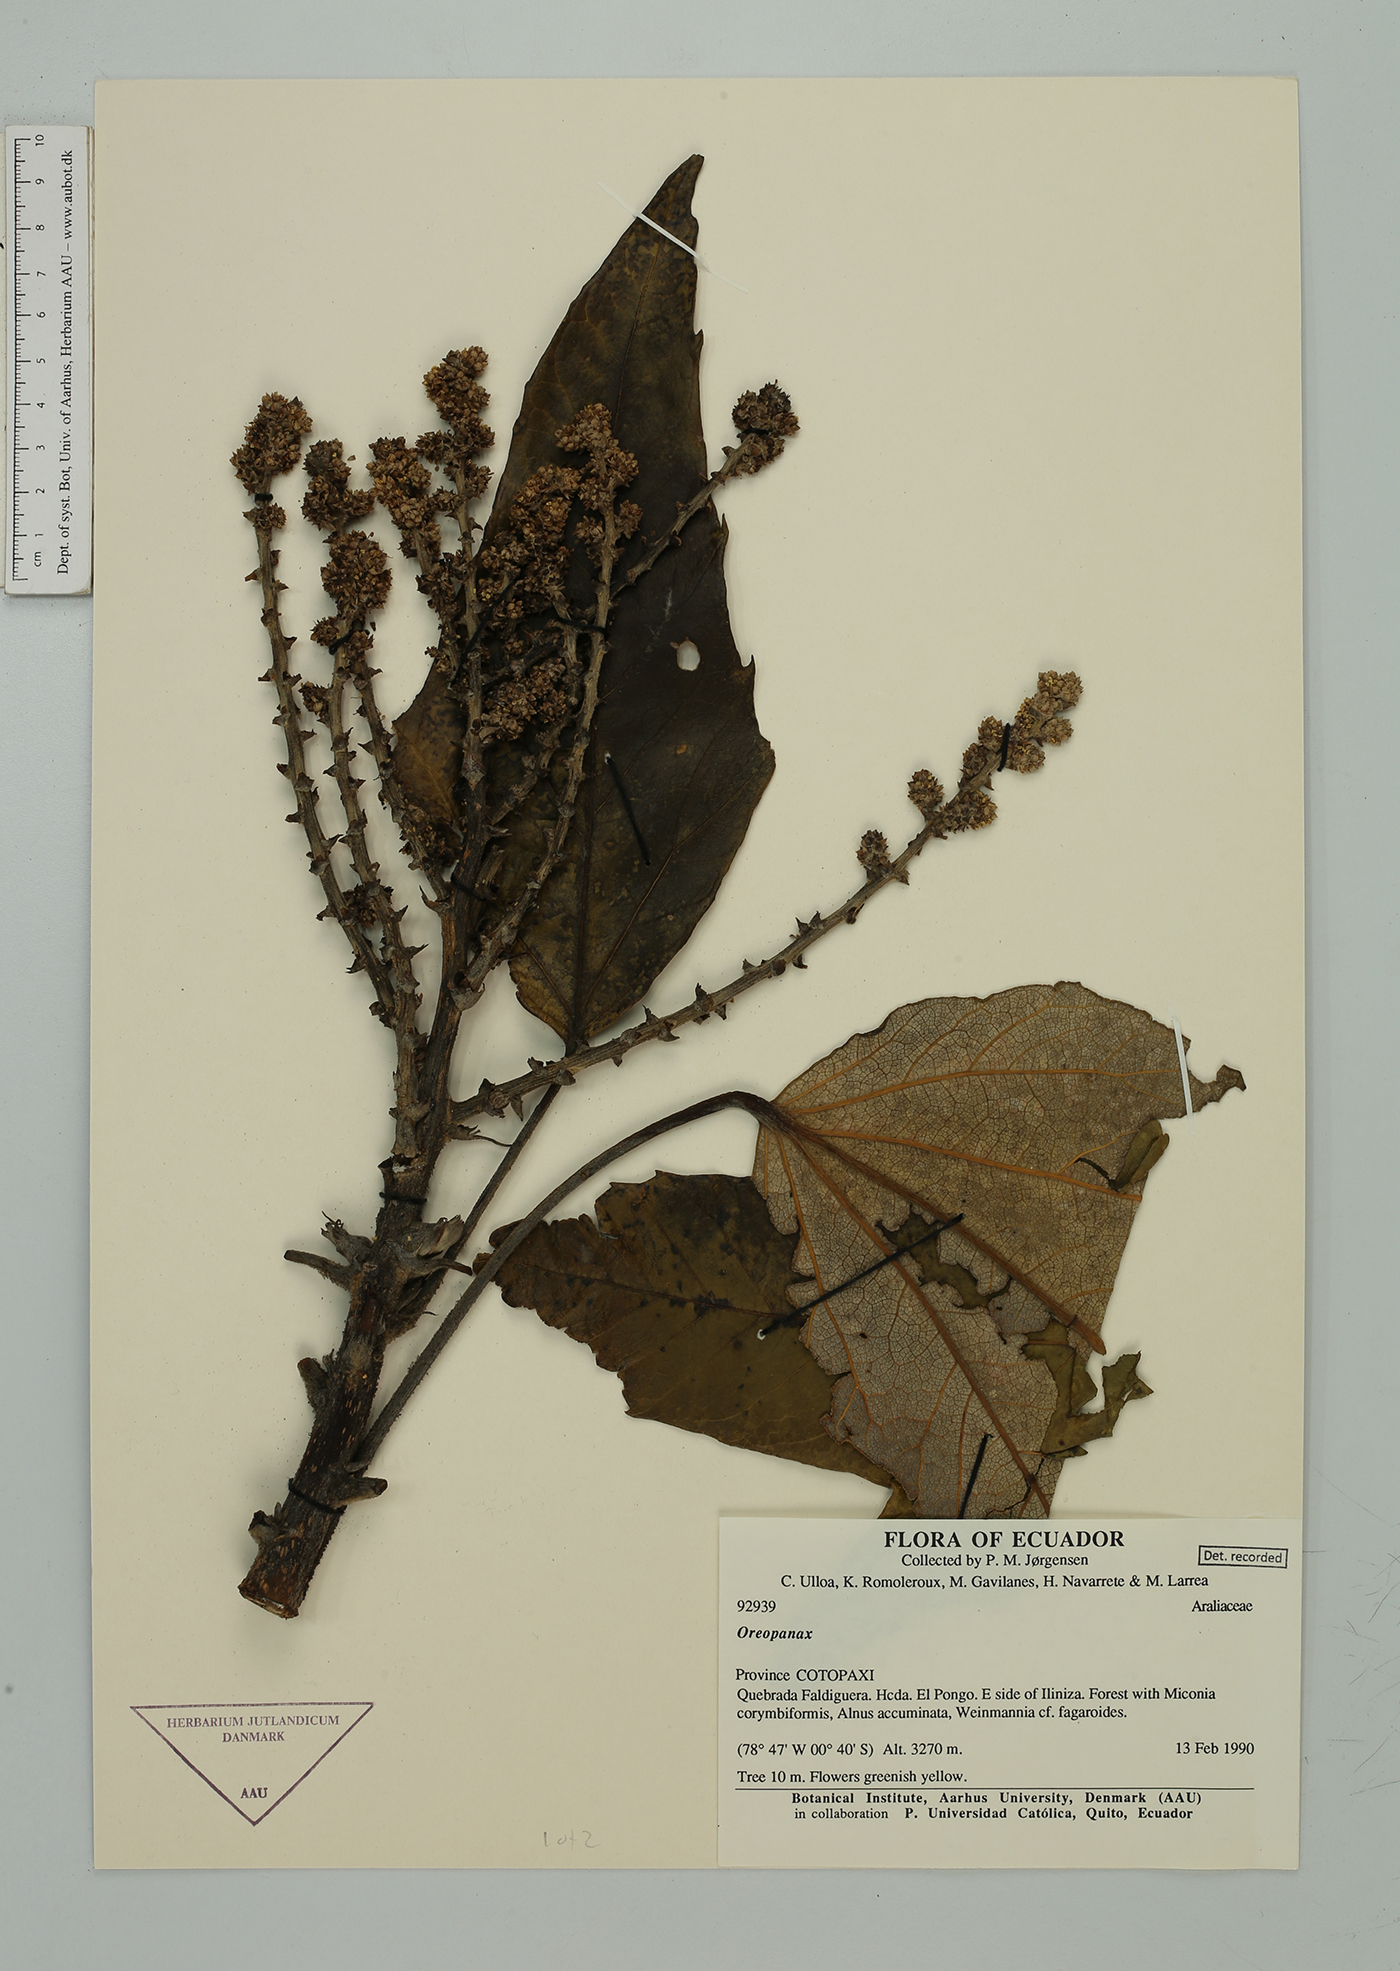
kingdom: Plantae
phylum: Tracheophyta
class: Magnoliopsida
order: Apiales
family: Araliaceae
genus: Oreopanax
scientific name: Oreopanax
